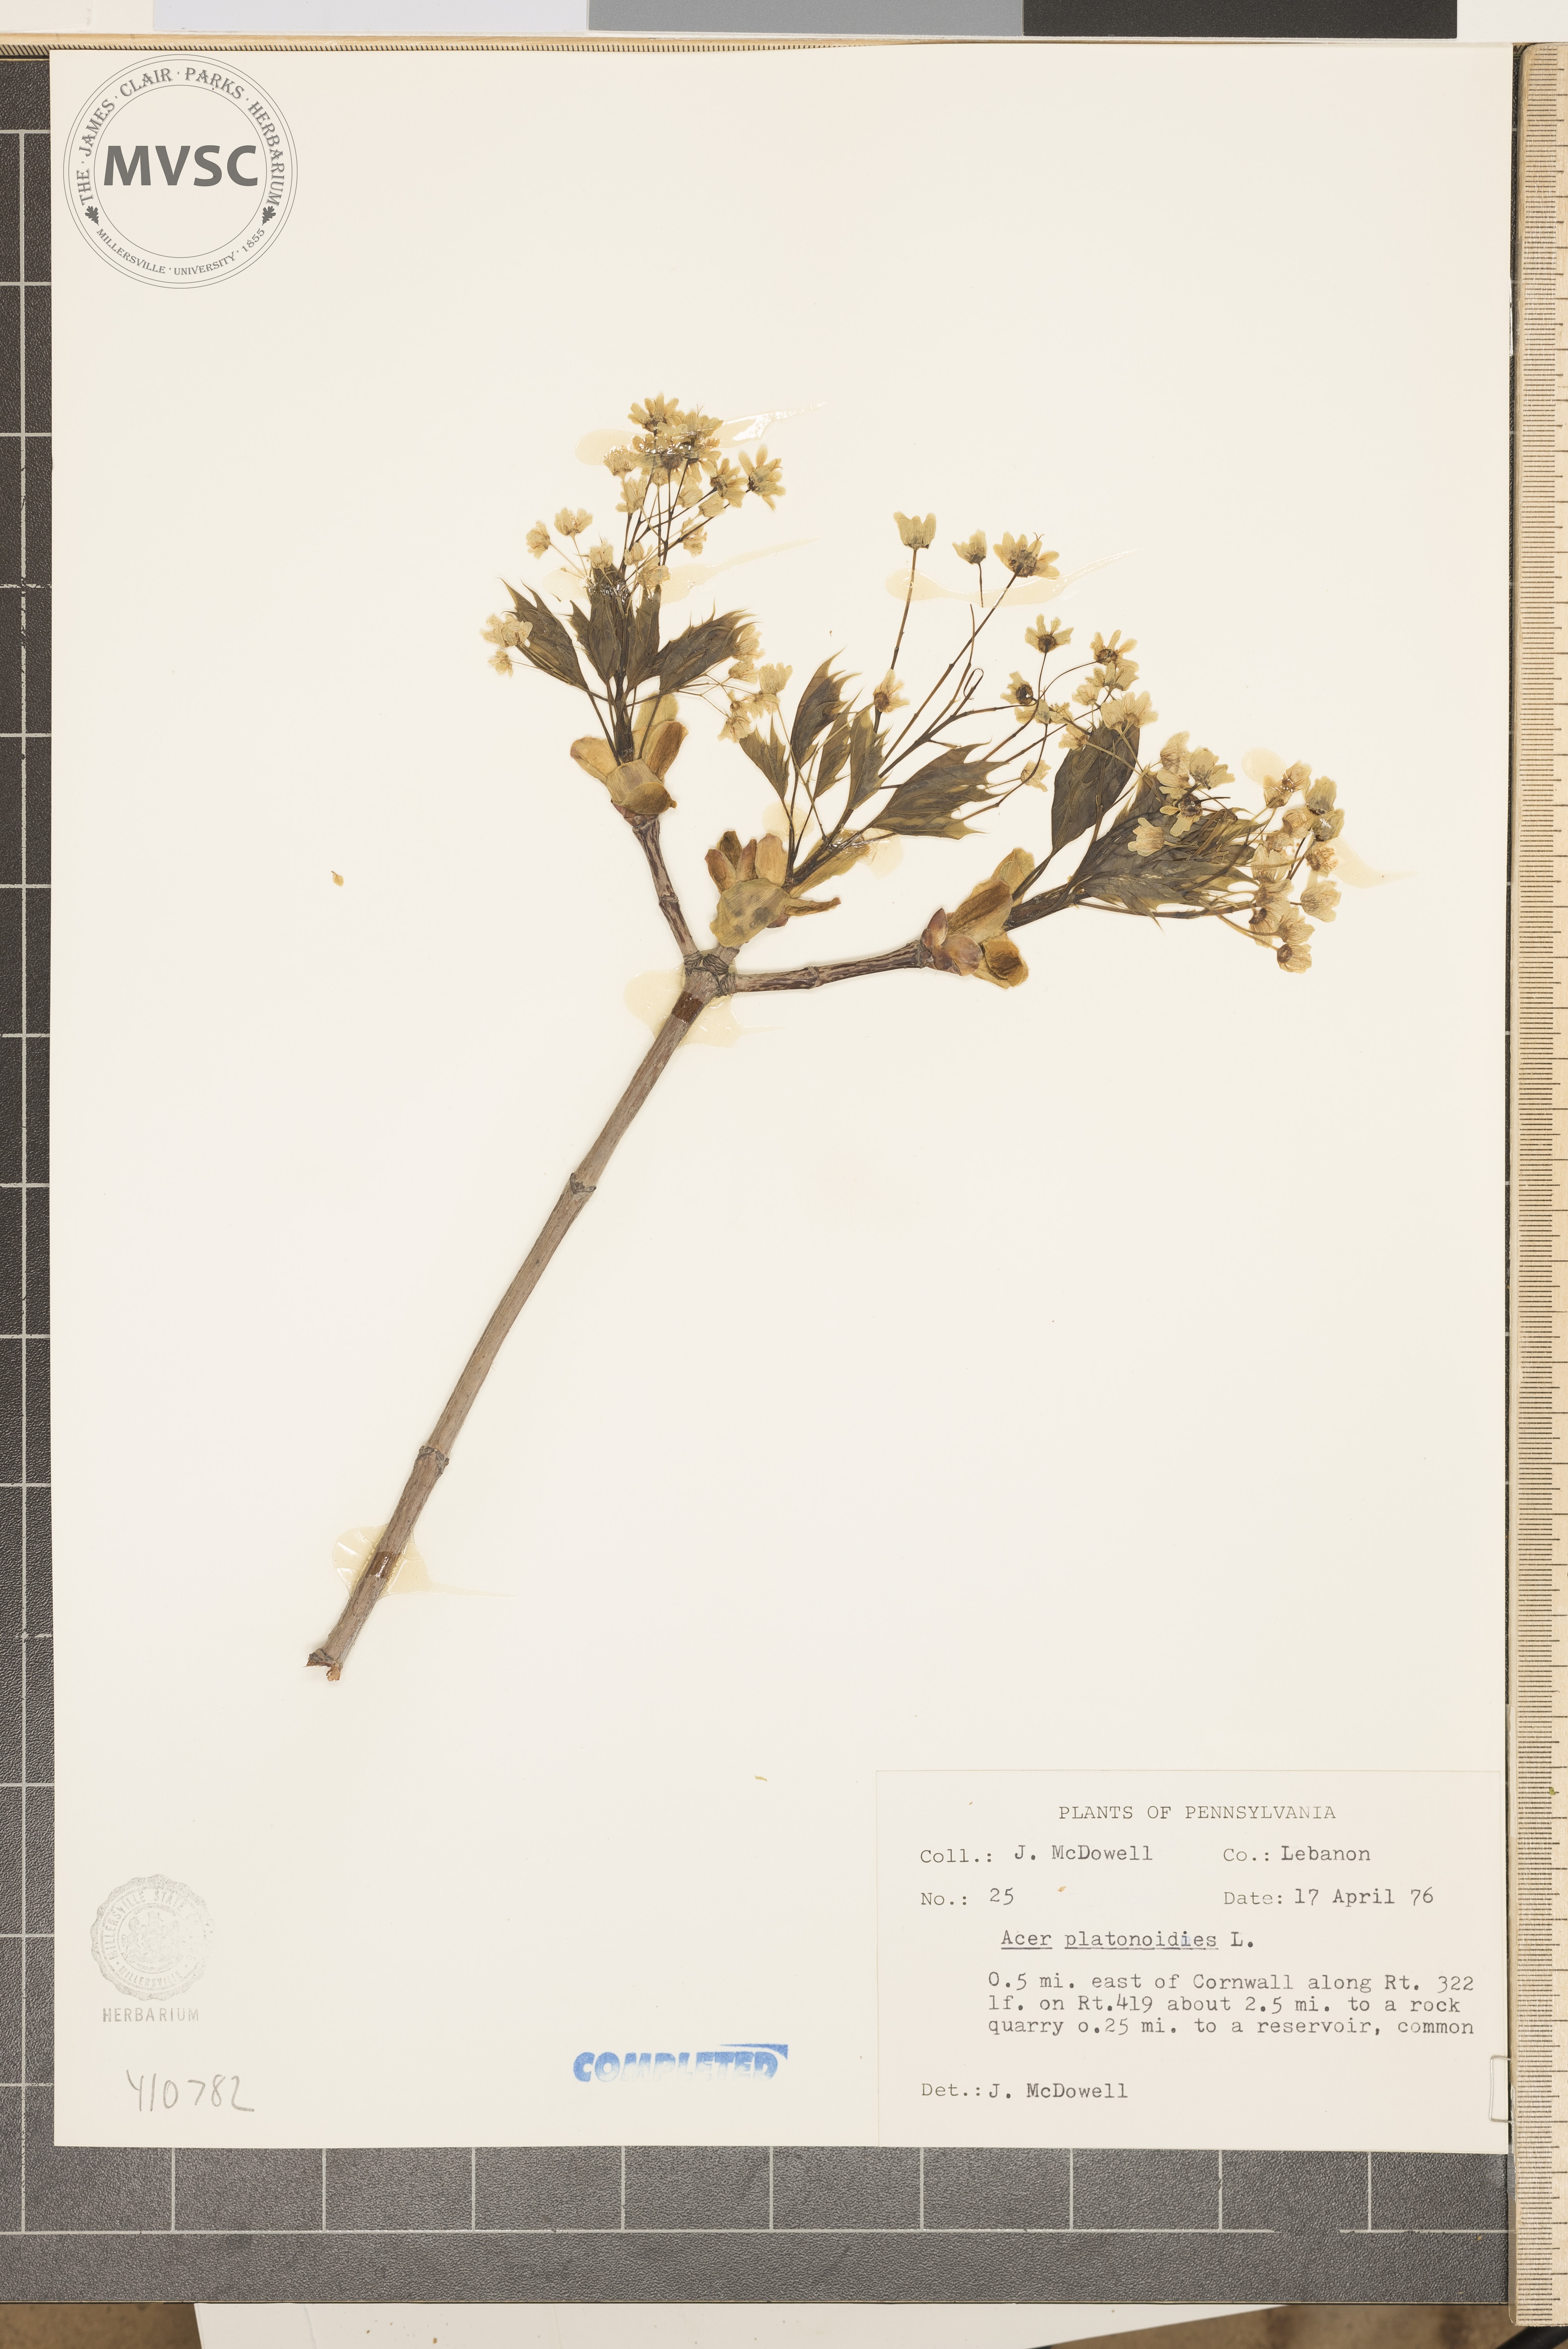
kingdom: Plantae
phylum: Tracheophyta
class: Magnoliopsida
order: Sapindales
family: Sapindaceae
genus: Acer
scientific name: Acer platanoides
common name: Norway maple
